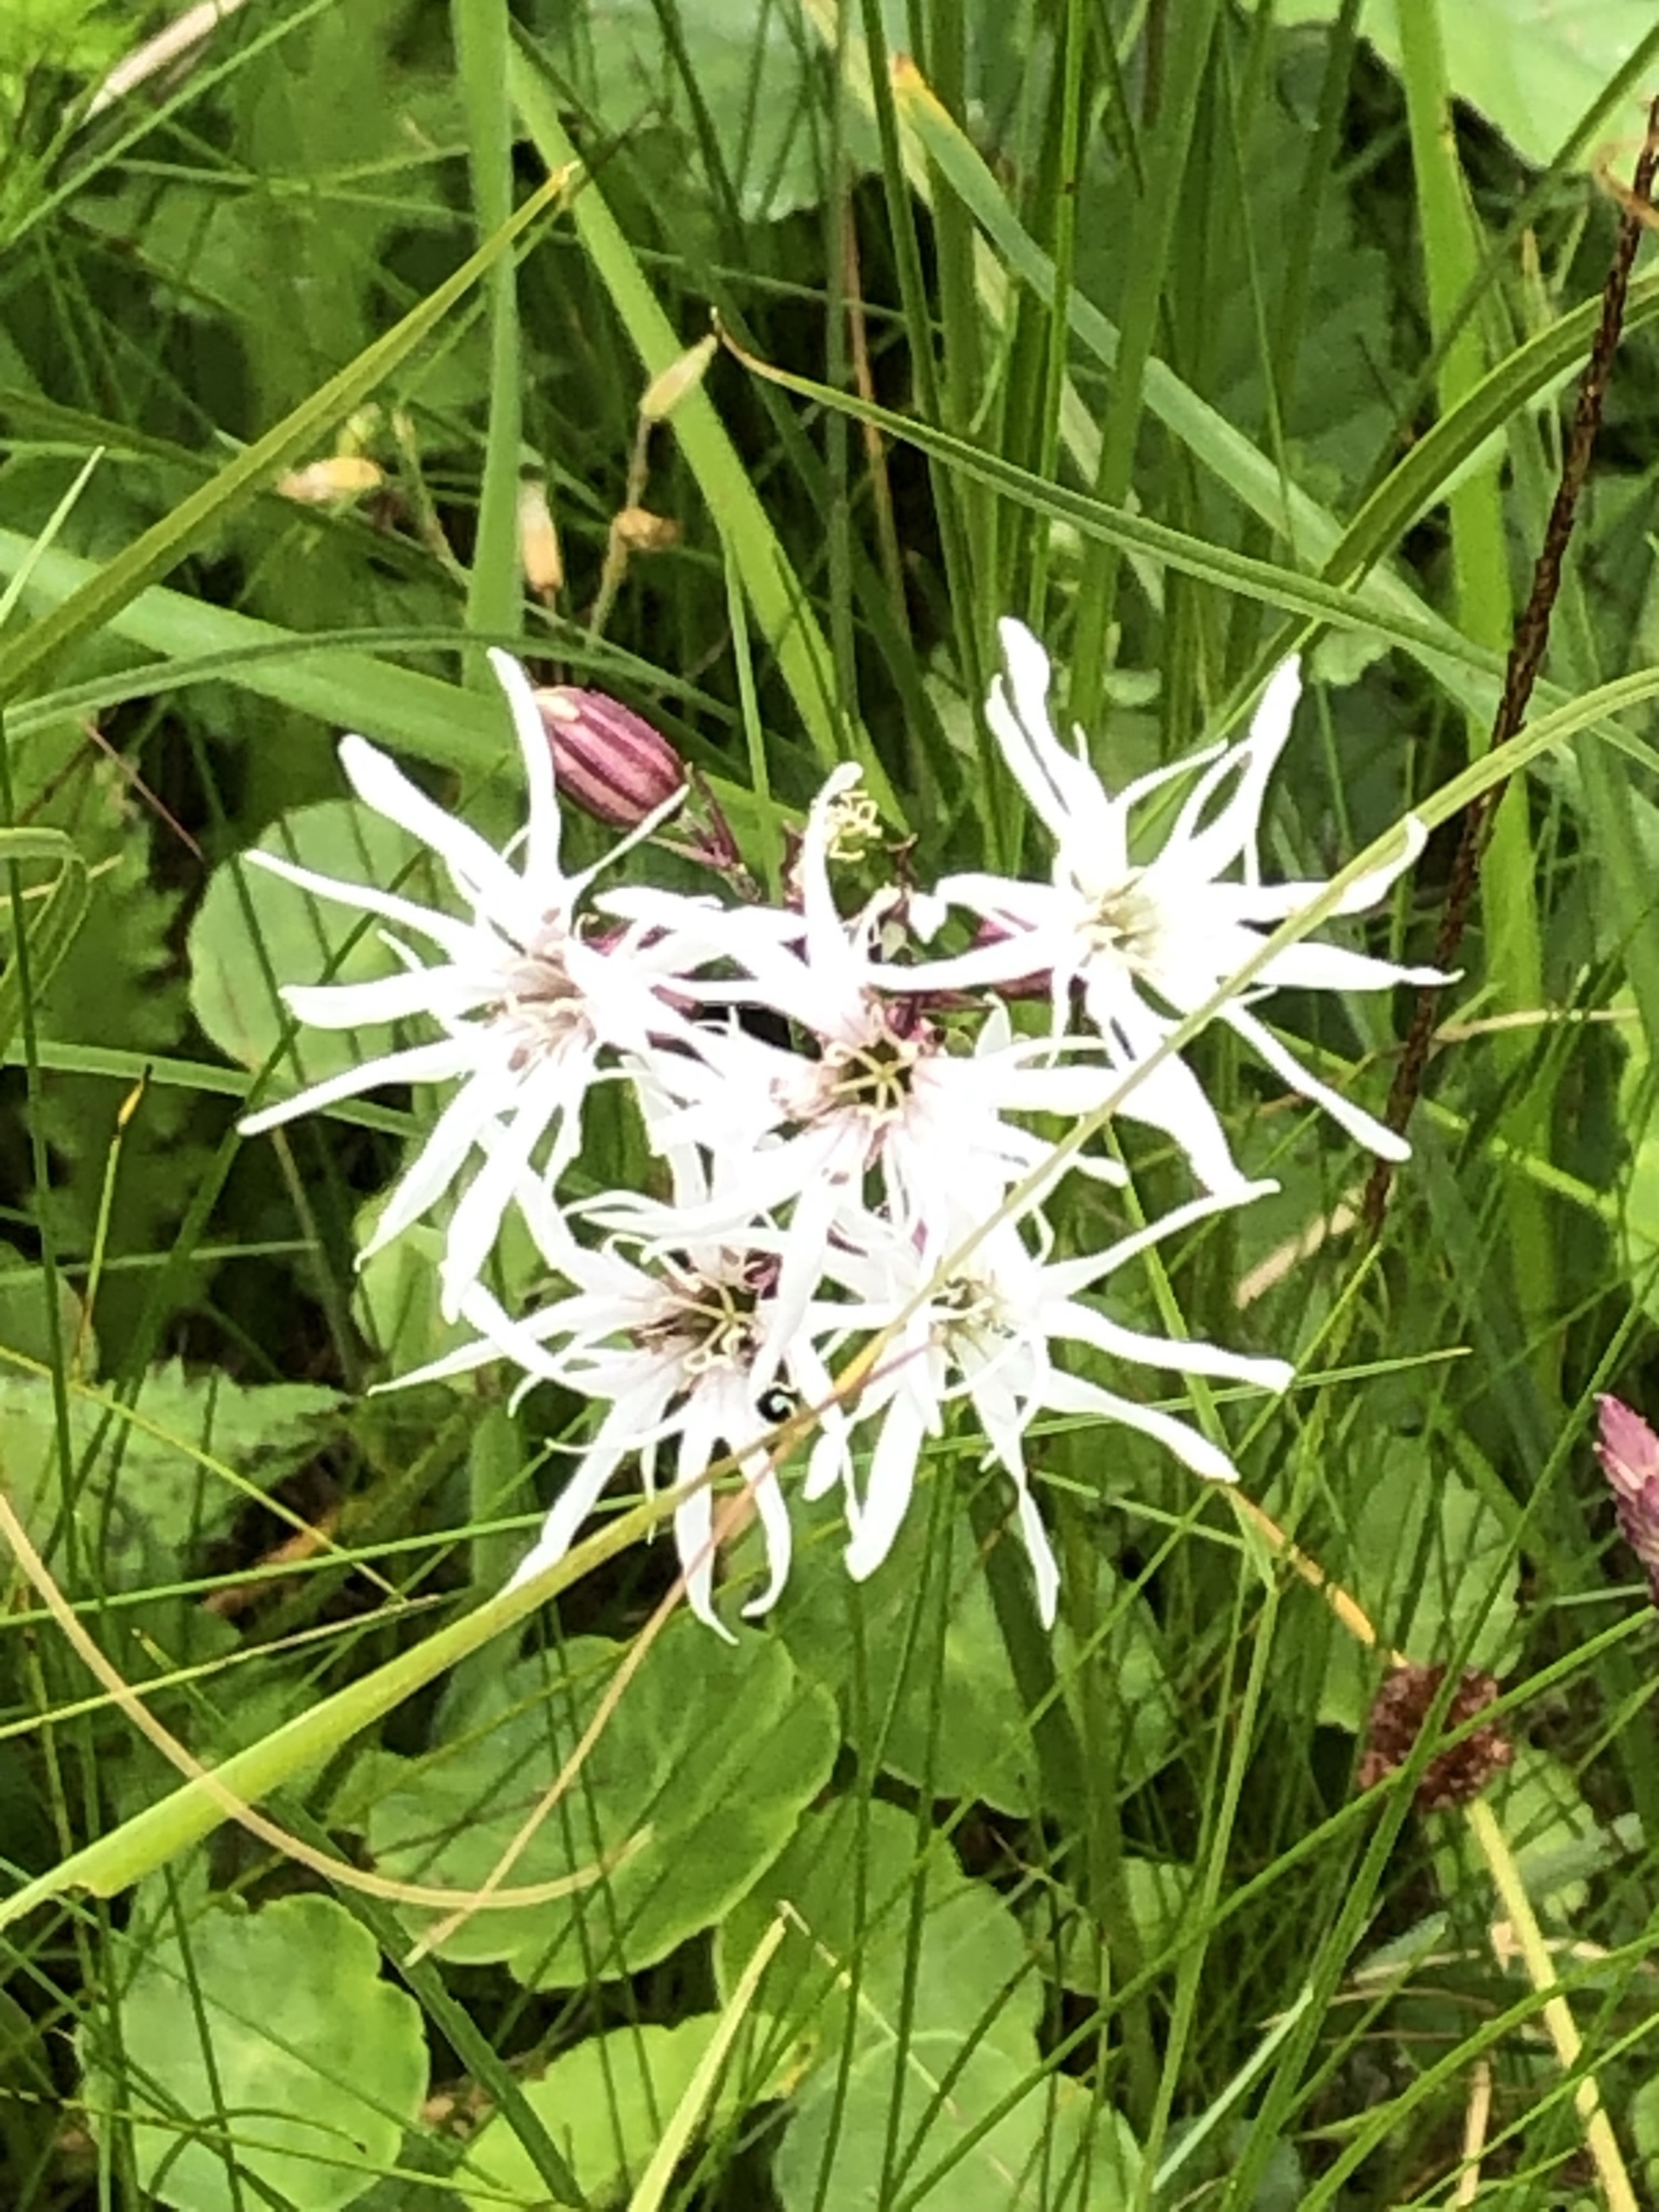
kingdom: Plantae
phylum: Tracheophyta
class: Magnoliopsida
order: Caryophyllales
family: Caryophyllaceae
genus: Silene
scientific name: Silene flos-cuculi
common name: Trævlekrone
